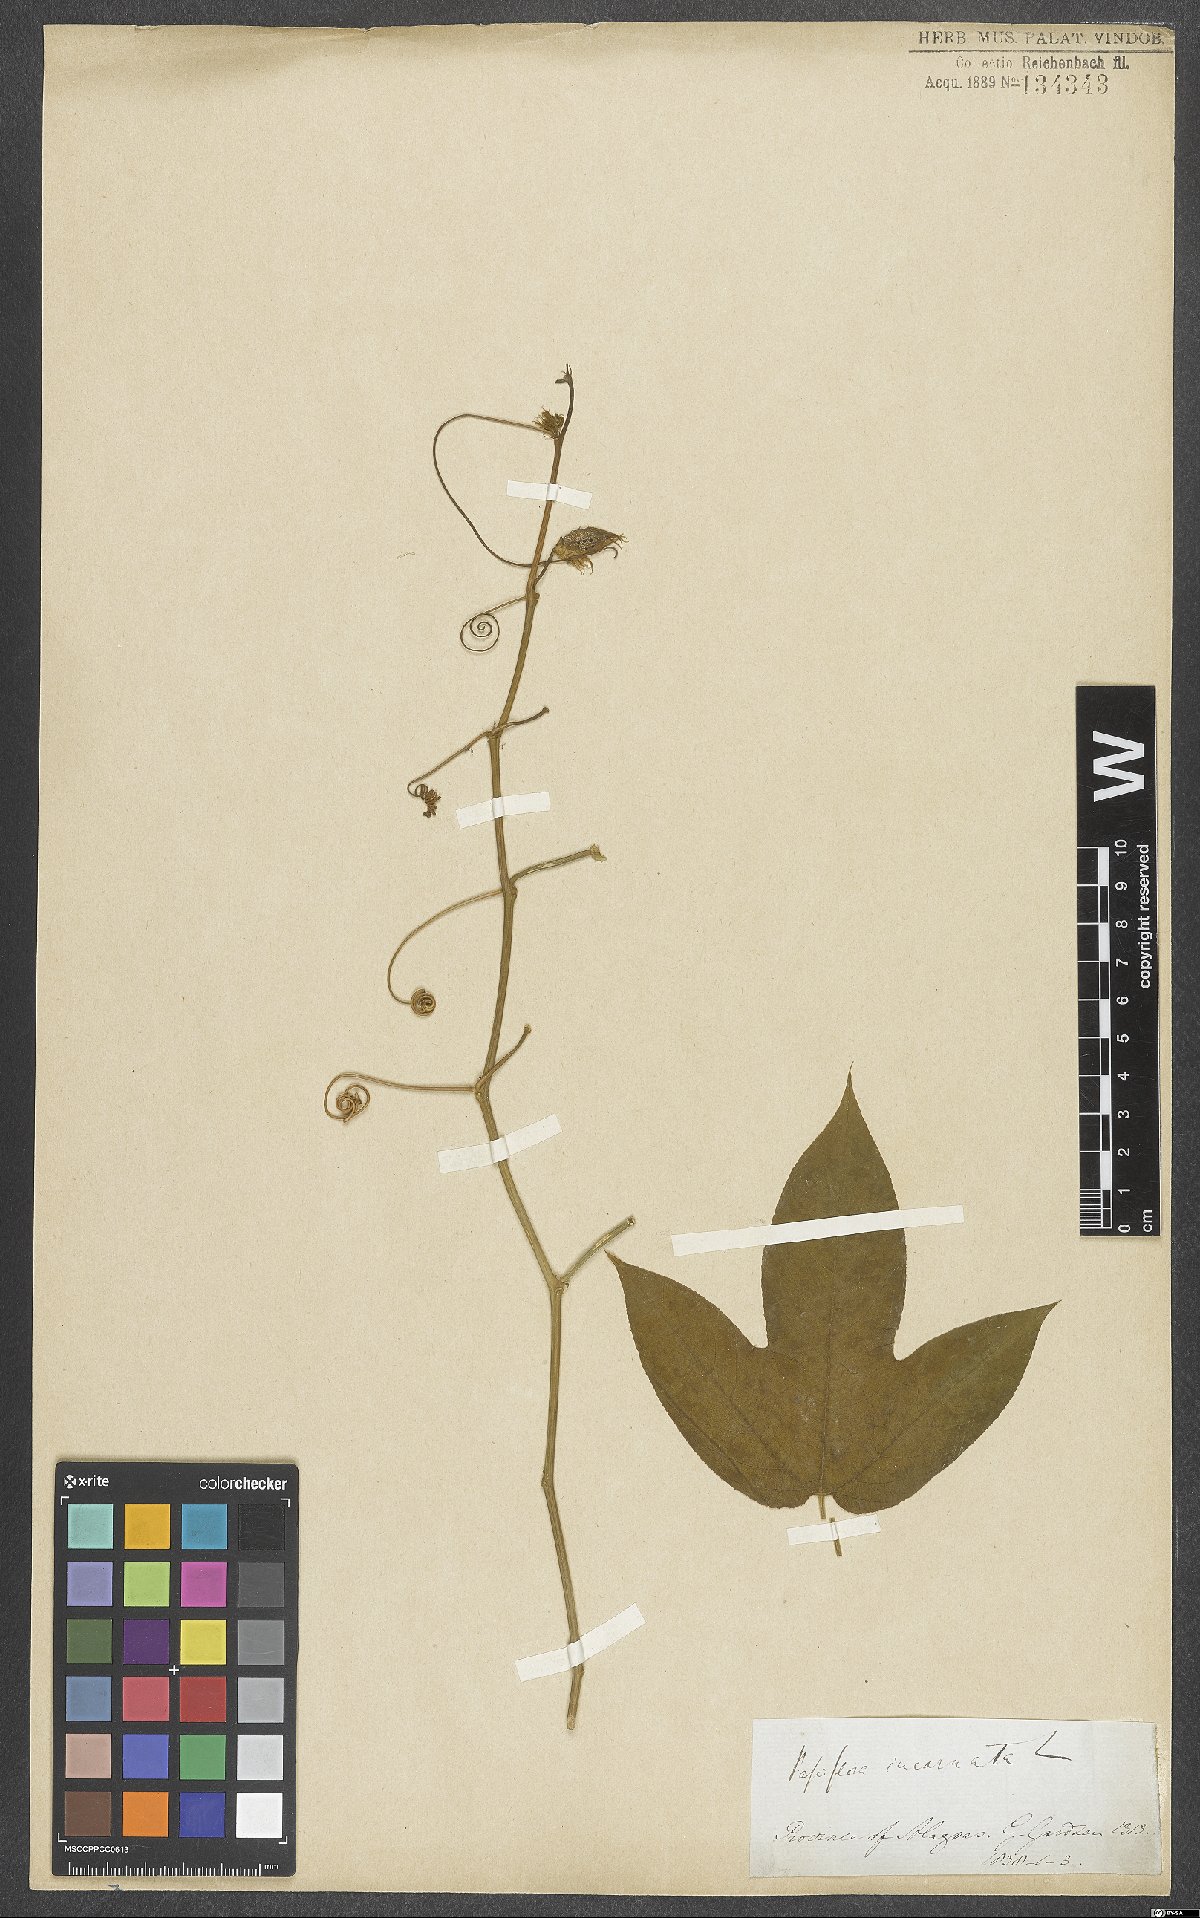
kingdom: Plantae
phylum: Tracheophyta
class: Magnoliopsida
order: Malpighiales
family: Passifloraceae
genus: Passiflora
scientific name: Passiflora incarnata
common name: Apricot-vine
